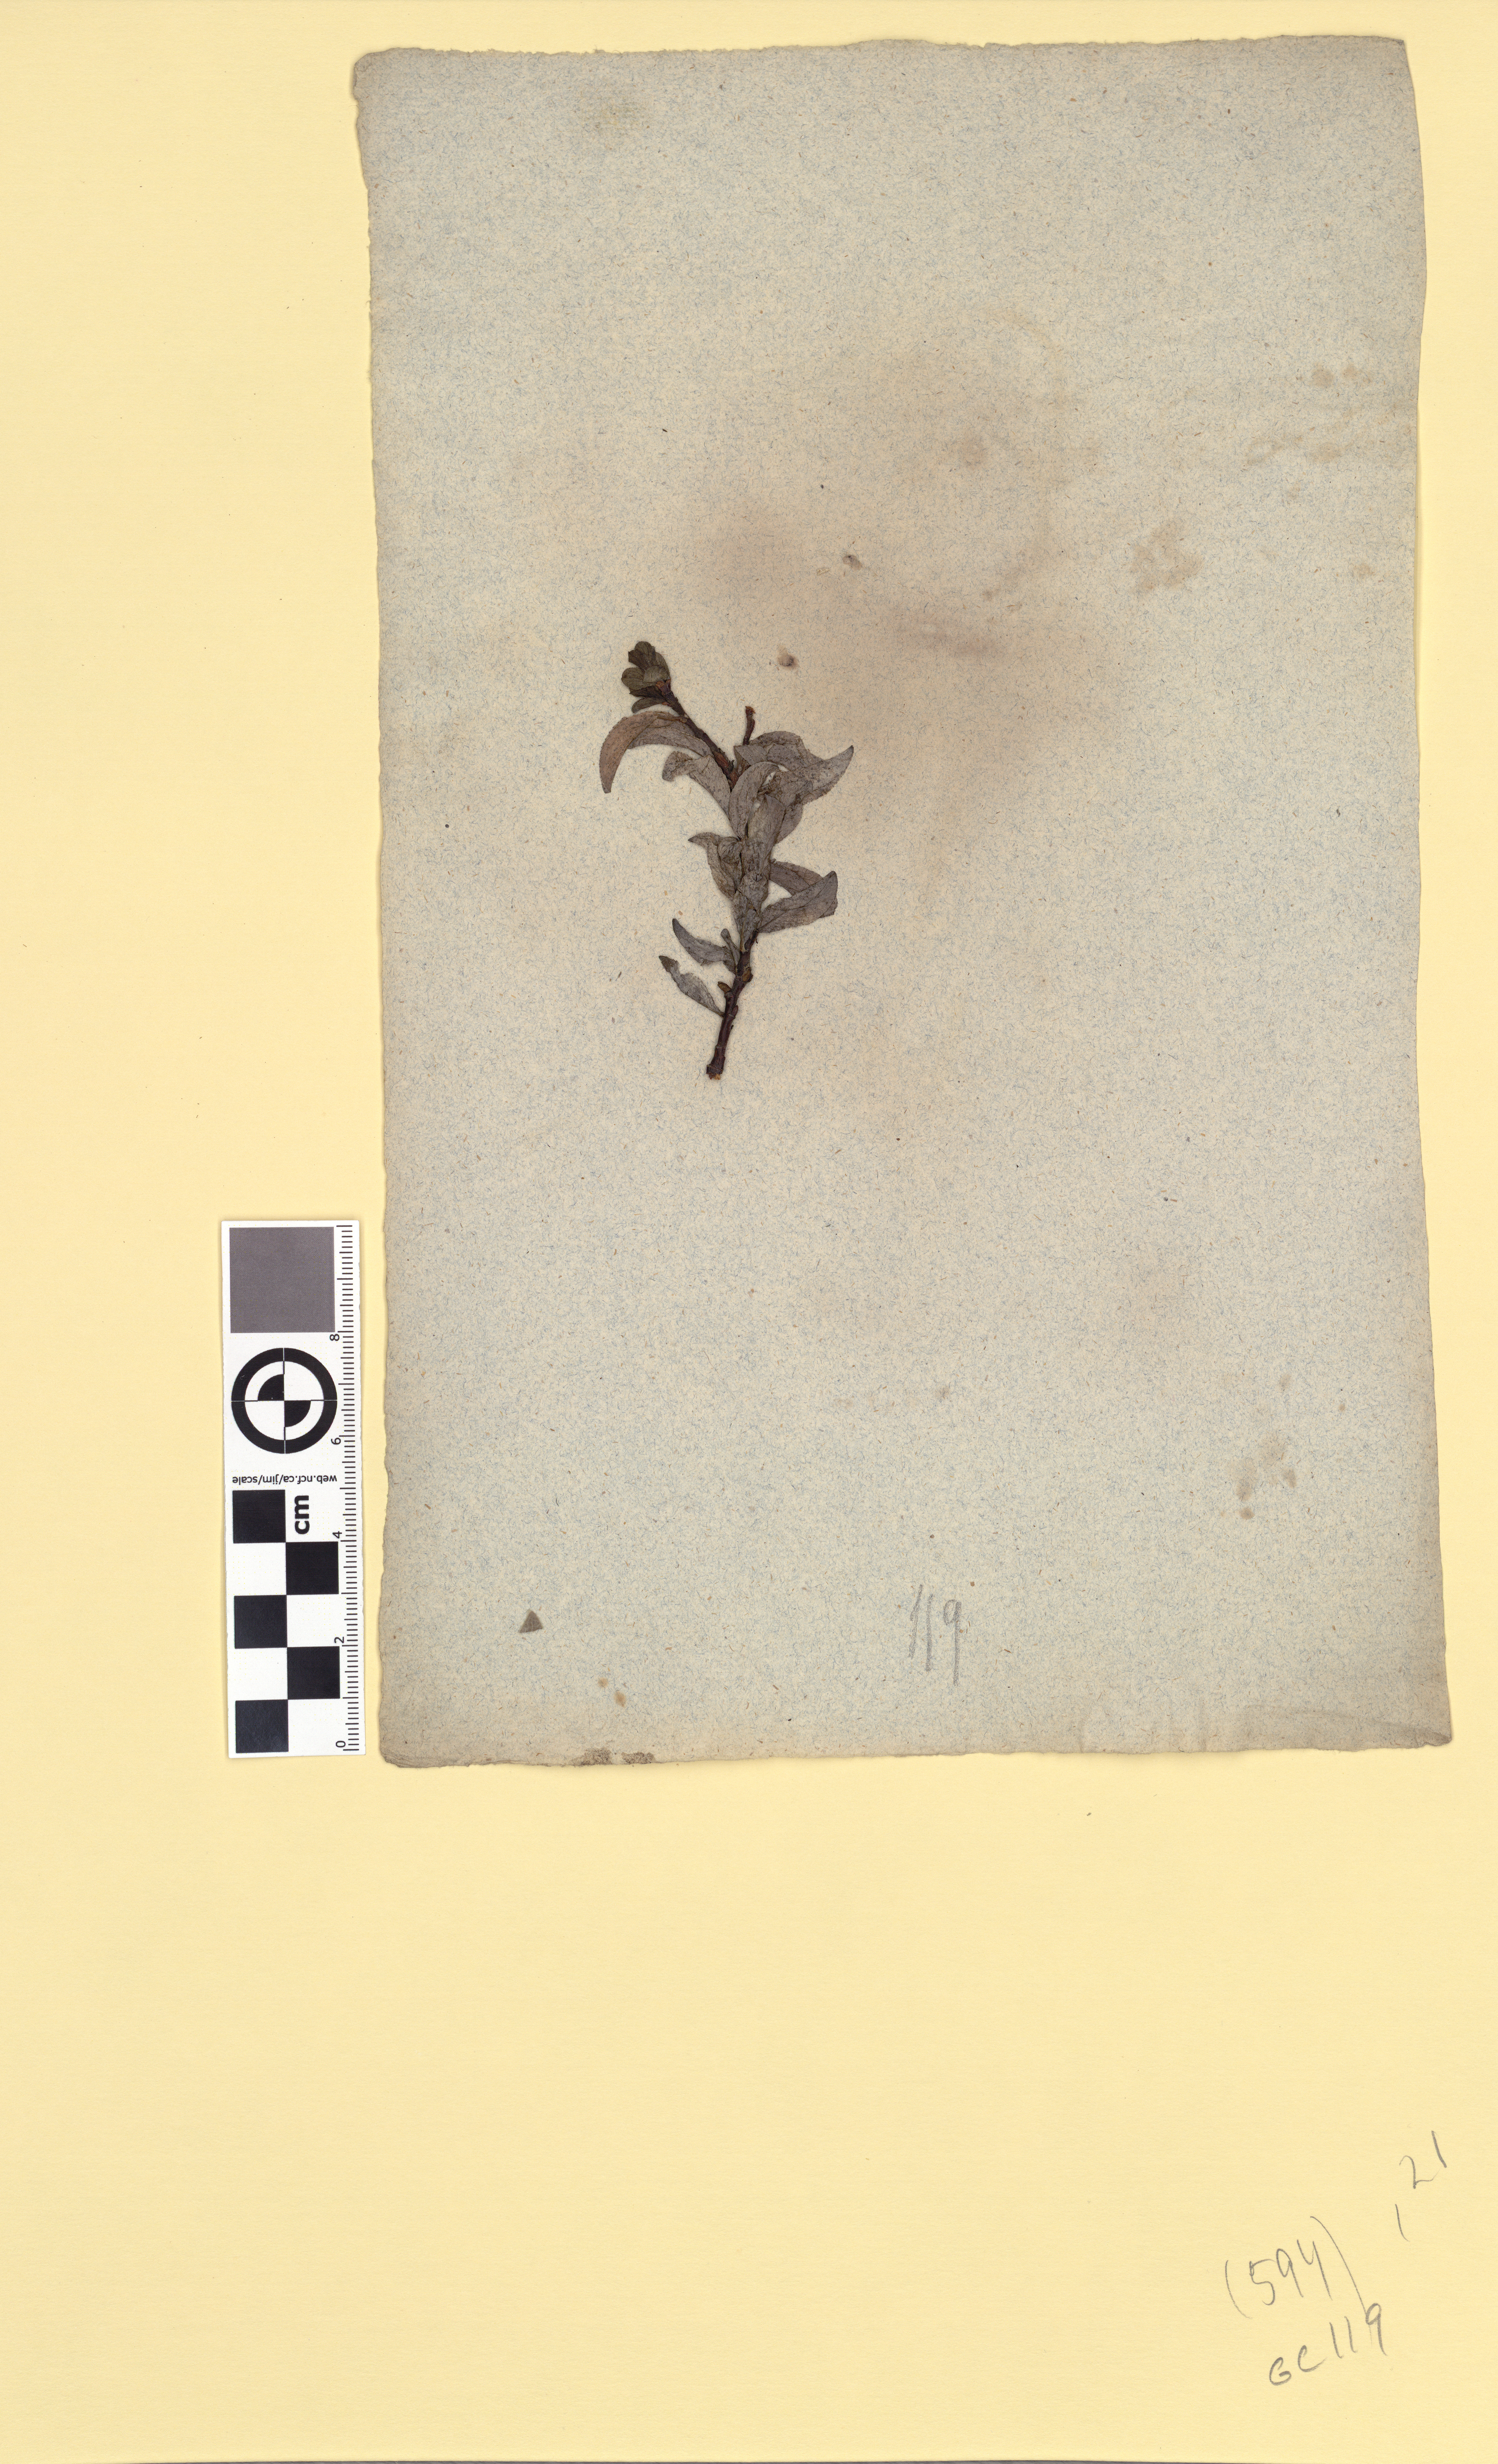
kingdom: Plantae
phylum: Tracheophyta
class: Magnoliopsida
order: Malpighiales
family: Salicaceae
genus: Salix
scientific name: Salix myrsinites
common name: Myrtle willow
